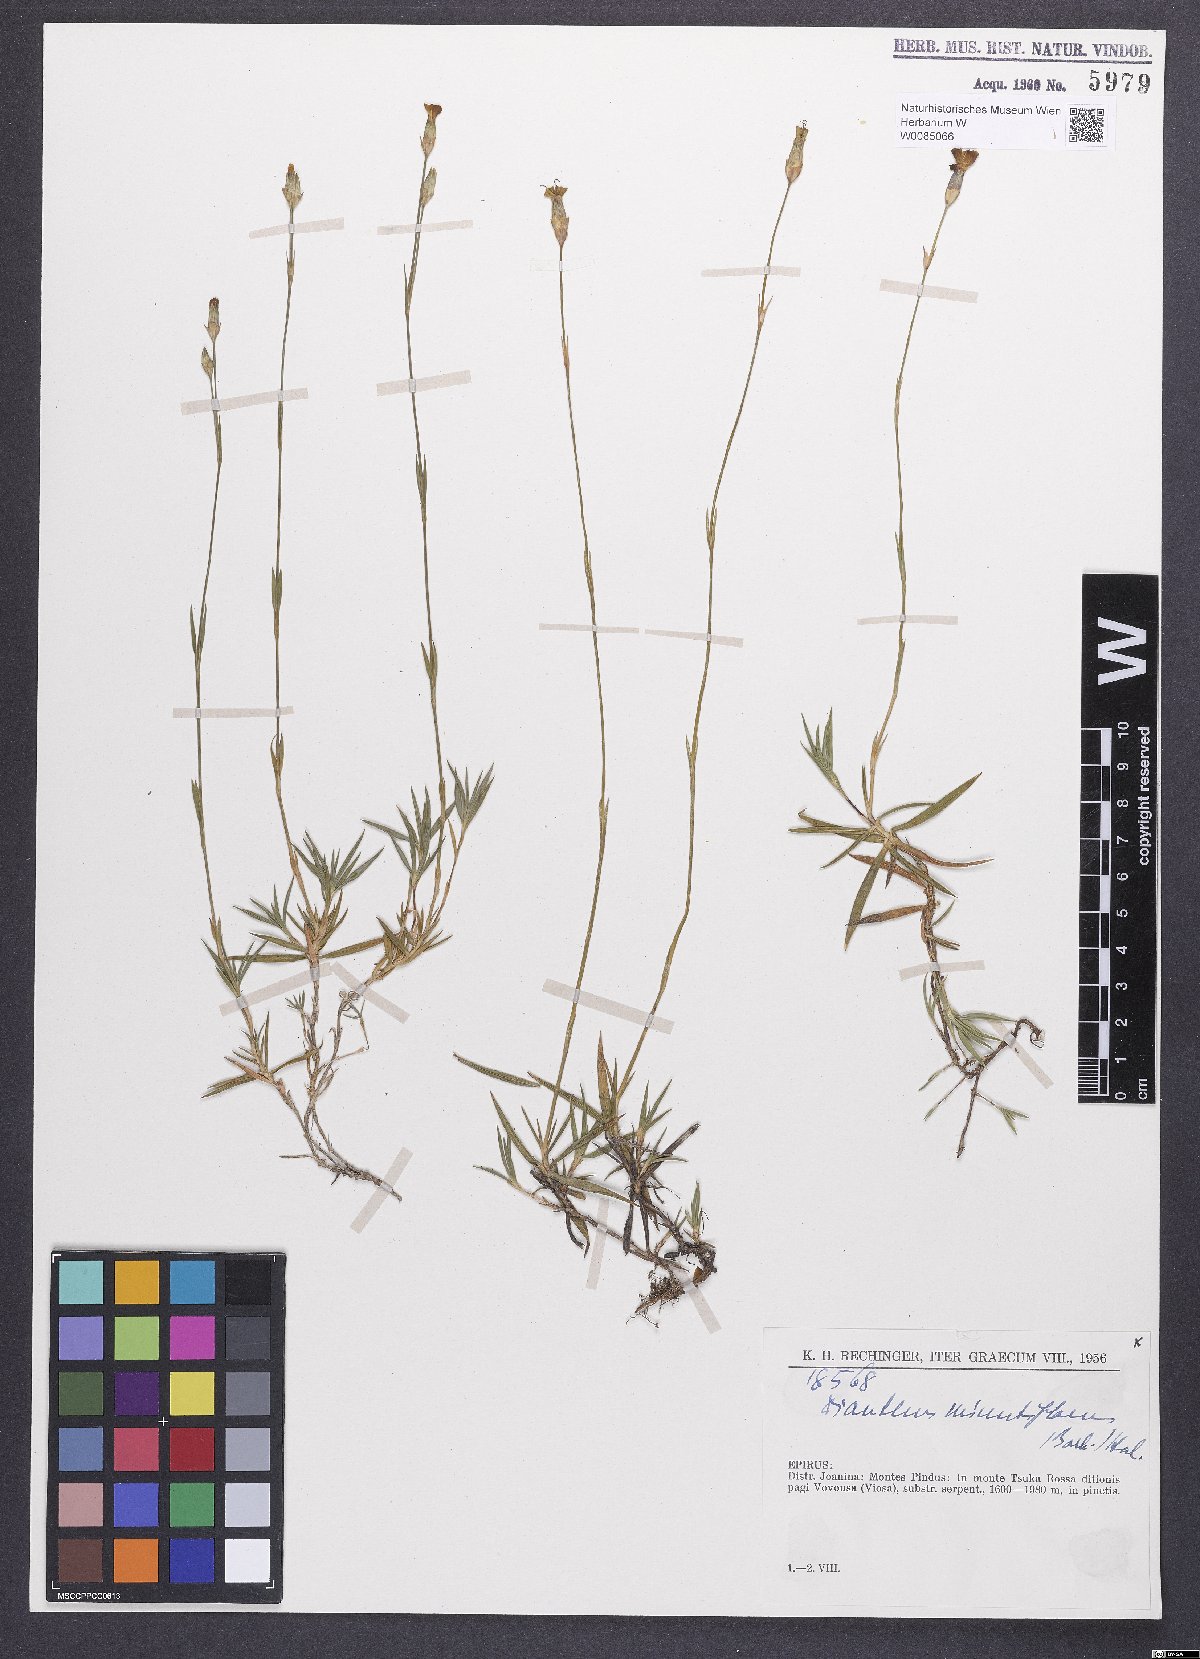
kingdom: Plantae
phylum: Tracheophyta
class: Magnoliopsida
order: Caryophyllales
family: Caryophyllaceae
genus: Dianthus
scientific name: Dianthus integer
